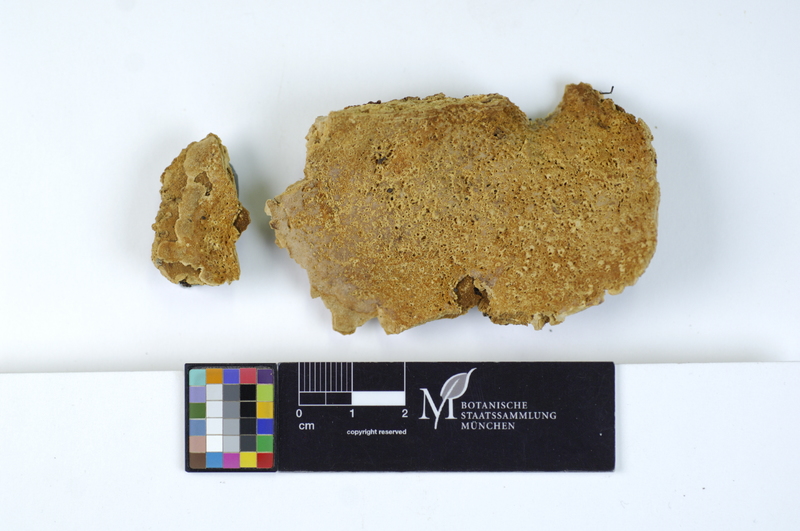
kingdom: Fungi
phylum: Basidiomycota
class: Agaricomycetes
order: Polyporales
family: Meripilaceae
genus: Rigidoporus
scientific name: Rigidoporus crocatus
